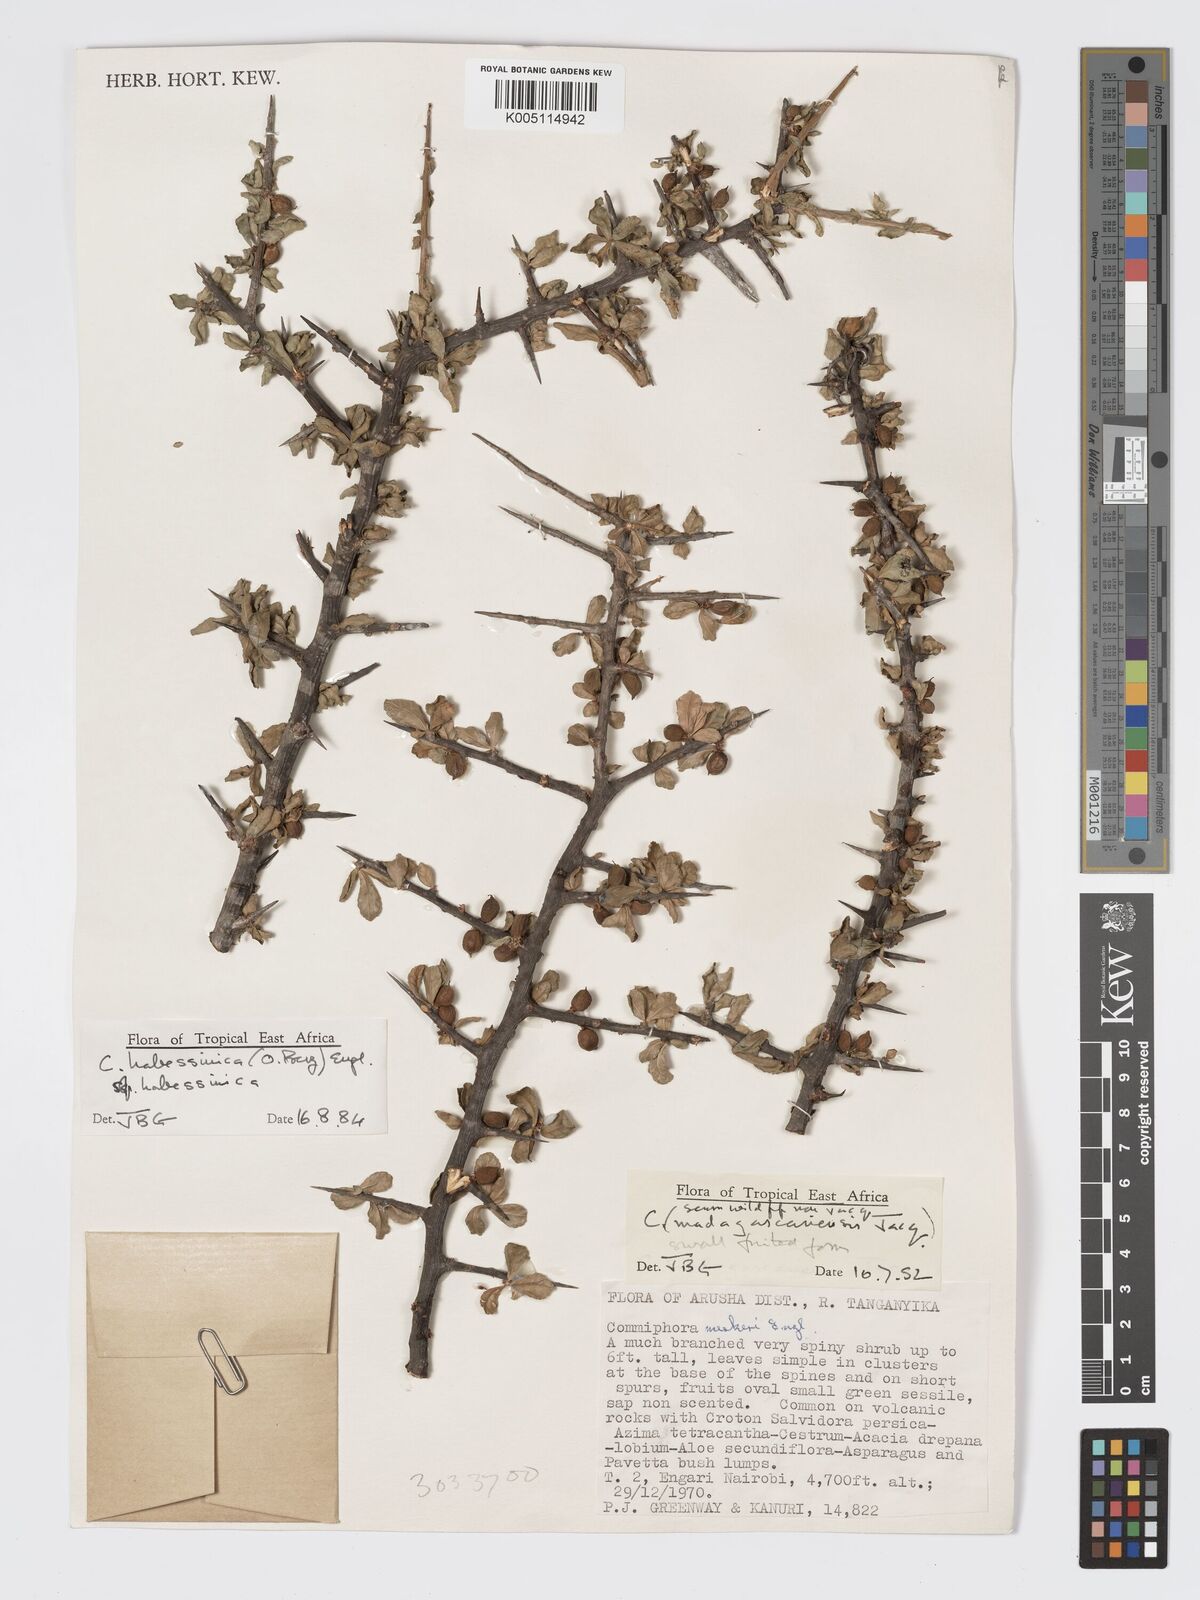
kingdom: Plantae
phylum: Tracheophyta
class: Magnoliopsida
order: Sapindales
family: Burseraceae
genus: Commiphora
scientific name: Commiphora kua
